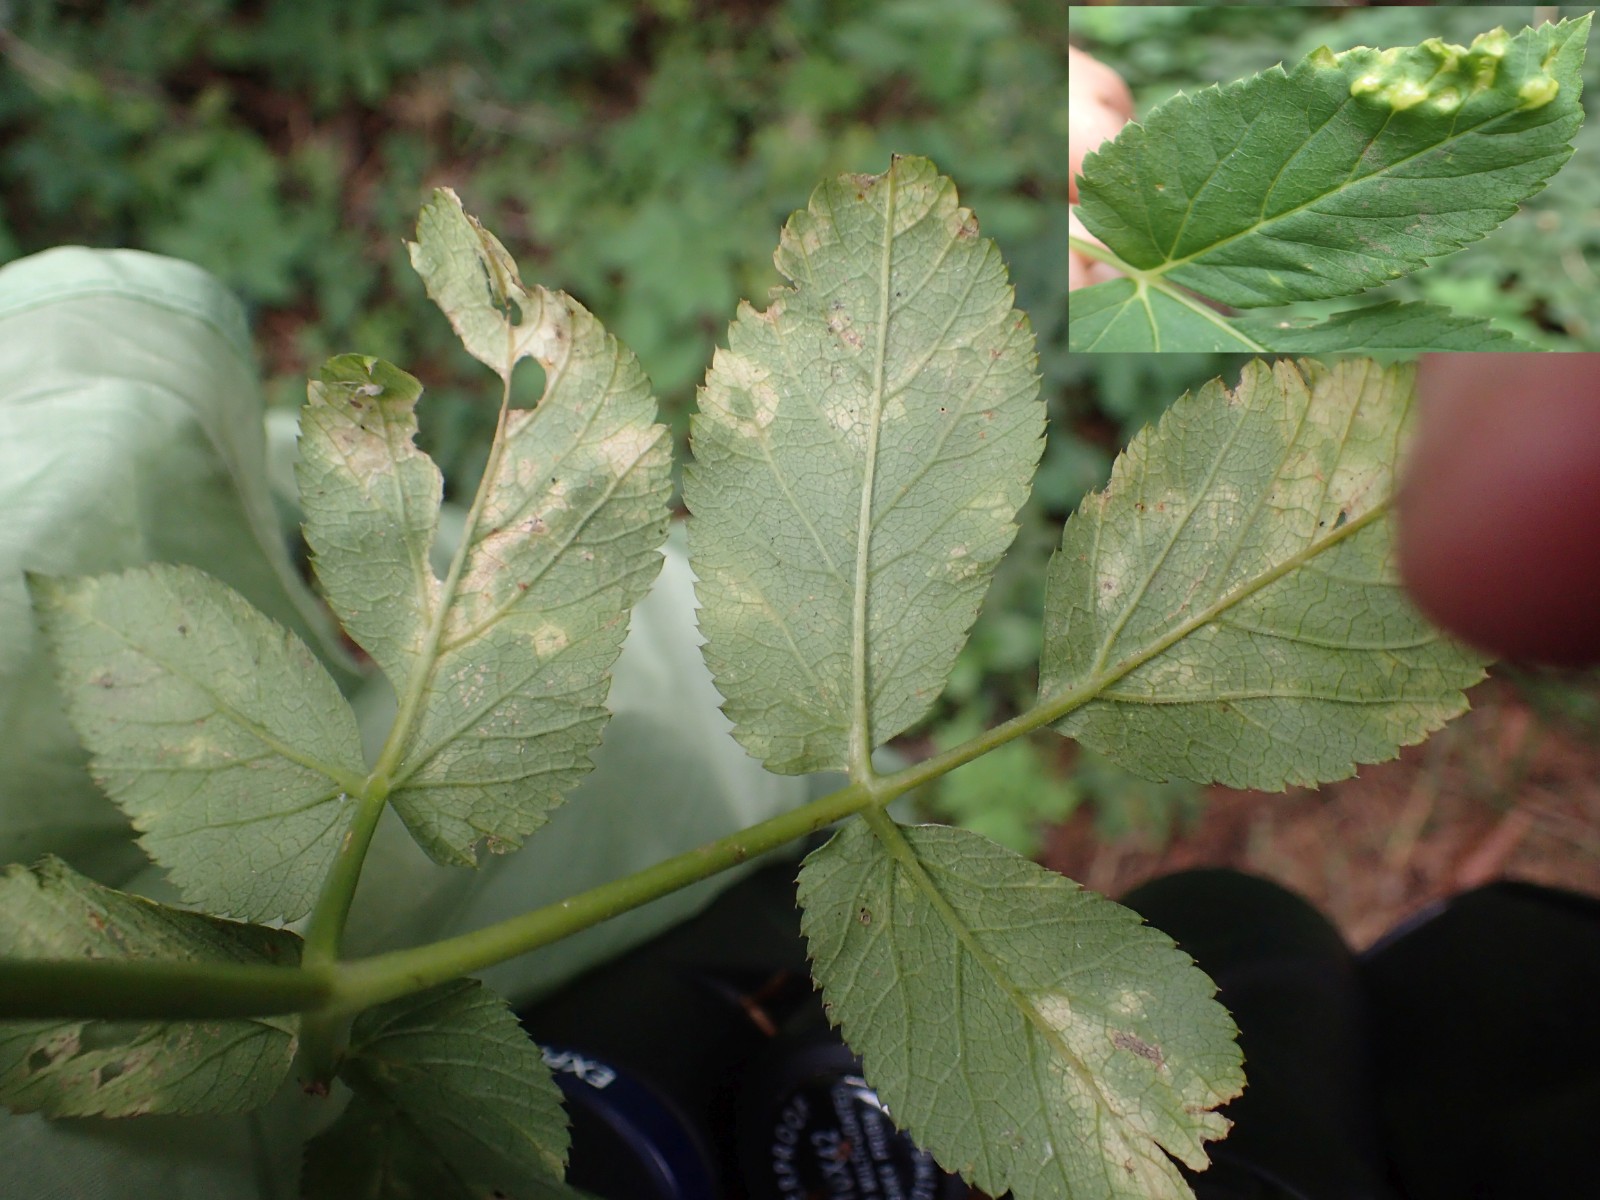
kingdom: Fungi
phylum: Ascomycota
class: Taphrinomycetes
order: Taphrinales
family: Taphrinaceae
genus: Protomyces
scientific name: Protomyces macrosporus
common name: skvalderkål-vablesæk
